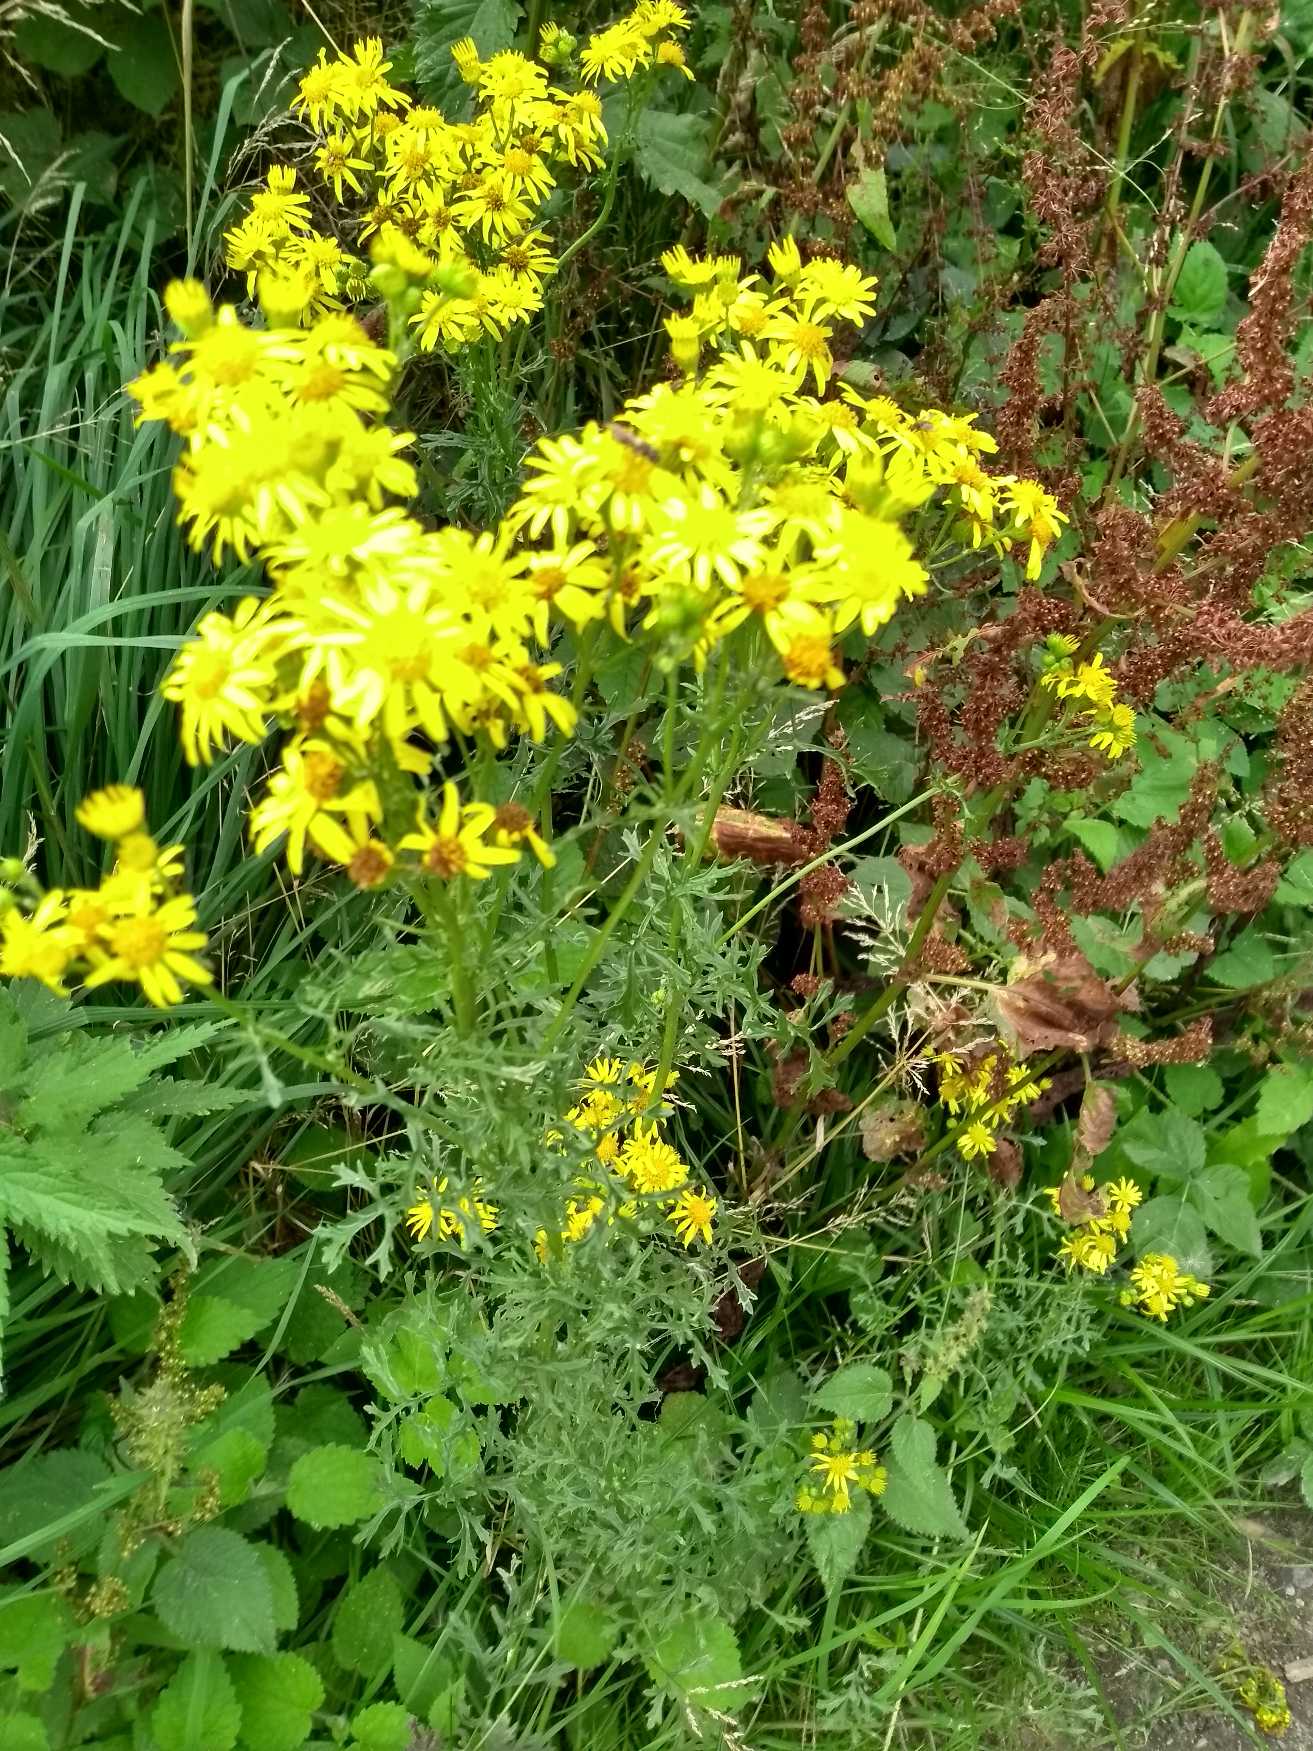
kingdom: Plantae
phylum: Tracheophyta
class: Magnoliopsida
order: Asterales
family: Asteraceae
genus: Jacobaea
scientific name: Jacobaea vulgaris
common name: Eng-brandbæger
